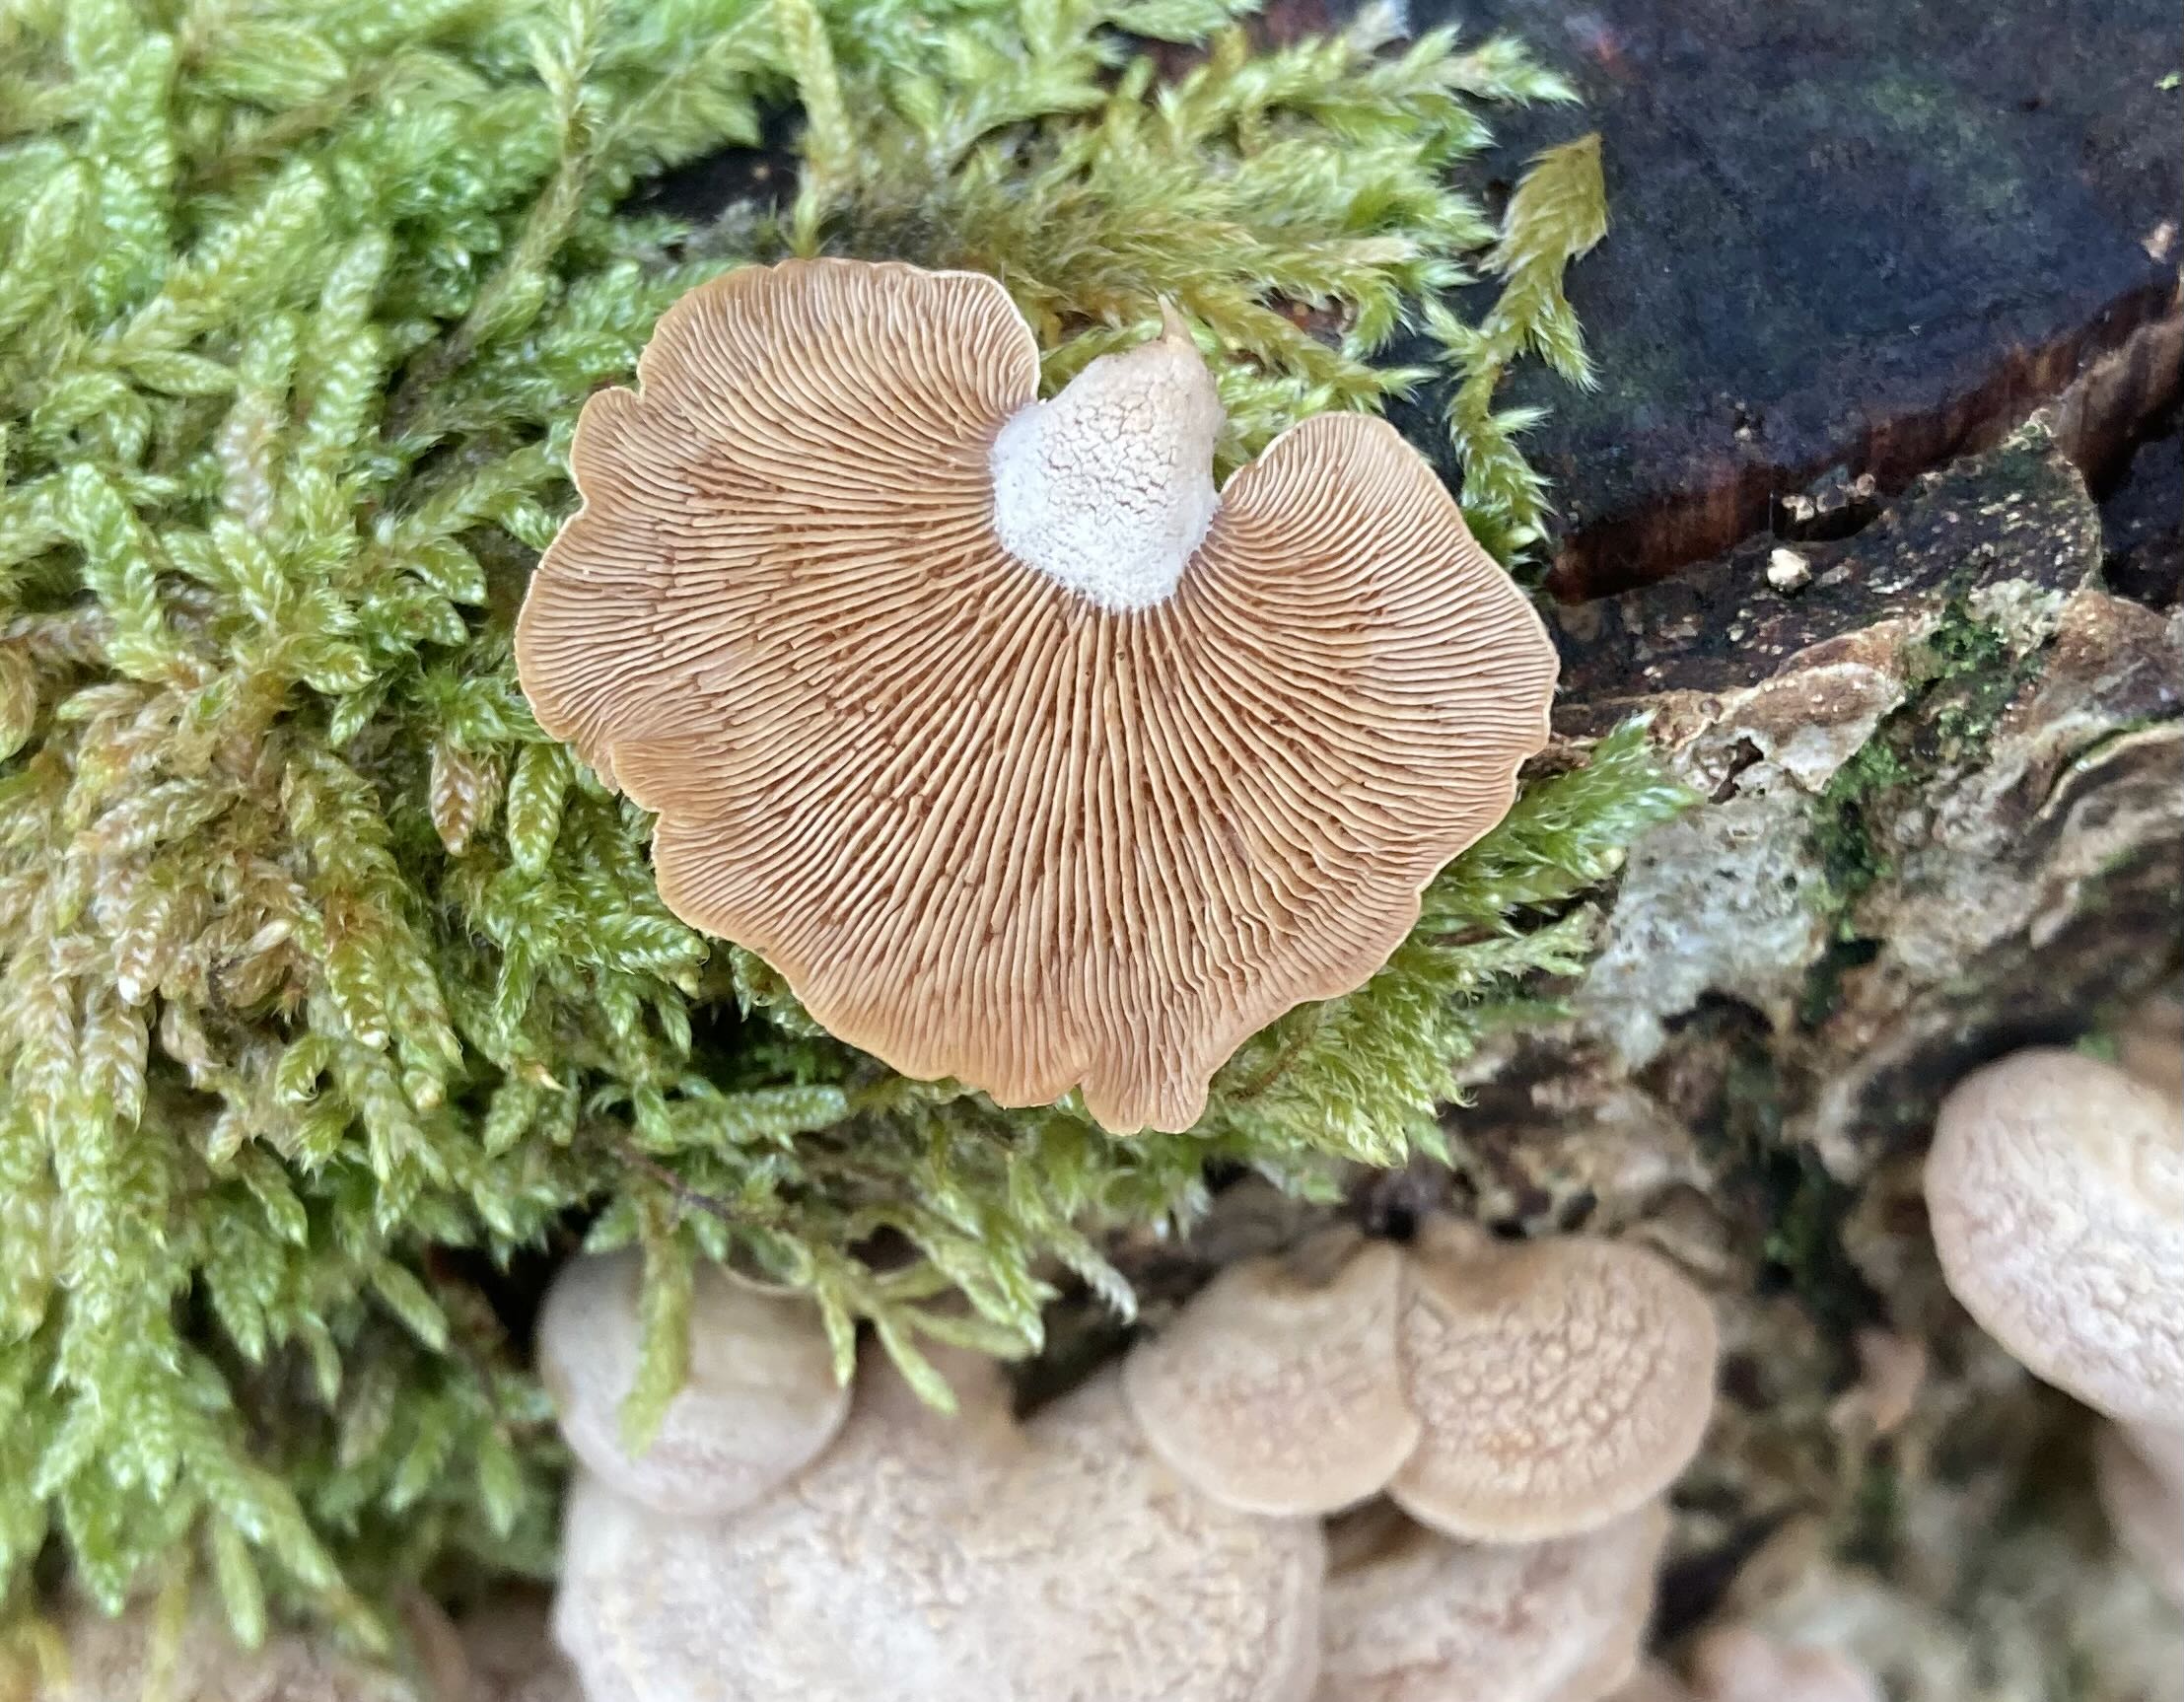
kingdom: Fungi
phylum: Basidiomycota
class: Agaricomycetes
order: Agaricales
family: Mycenaceae
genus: Panellus
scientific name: Panellus stipticus
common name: kliddet epaulethat
